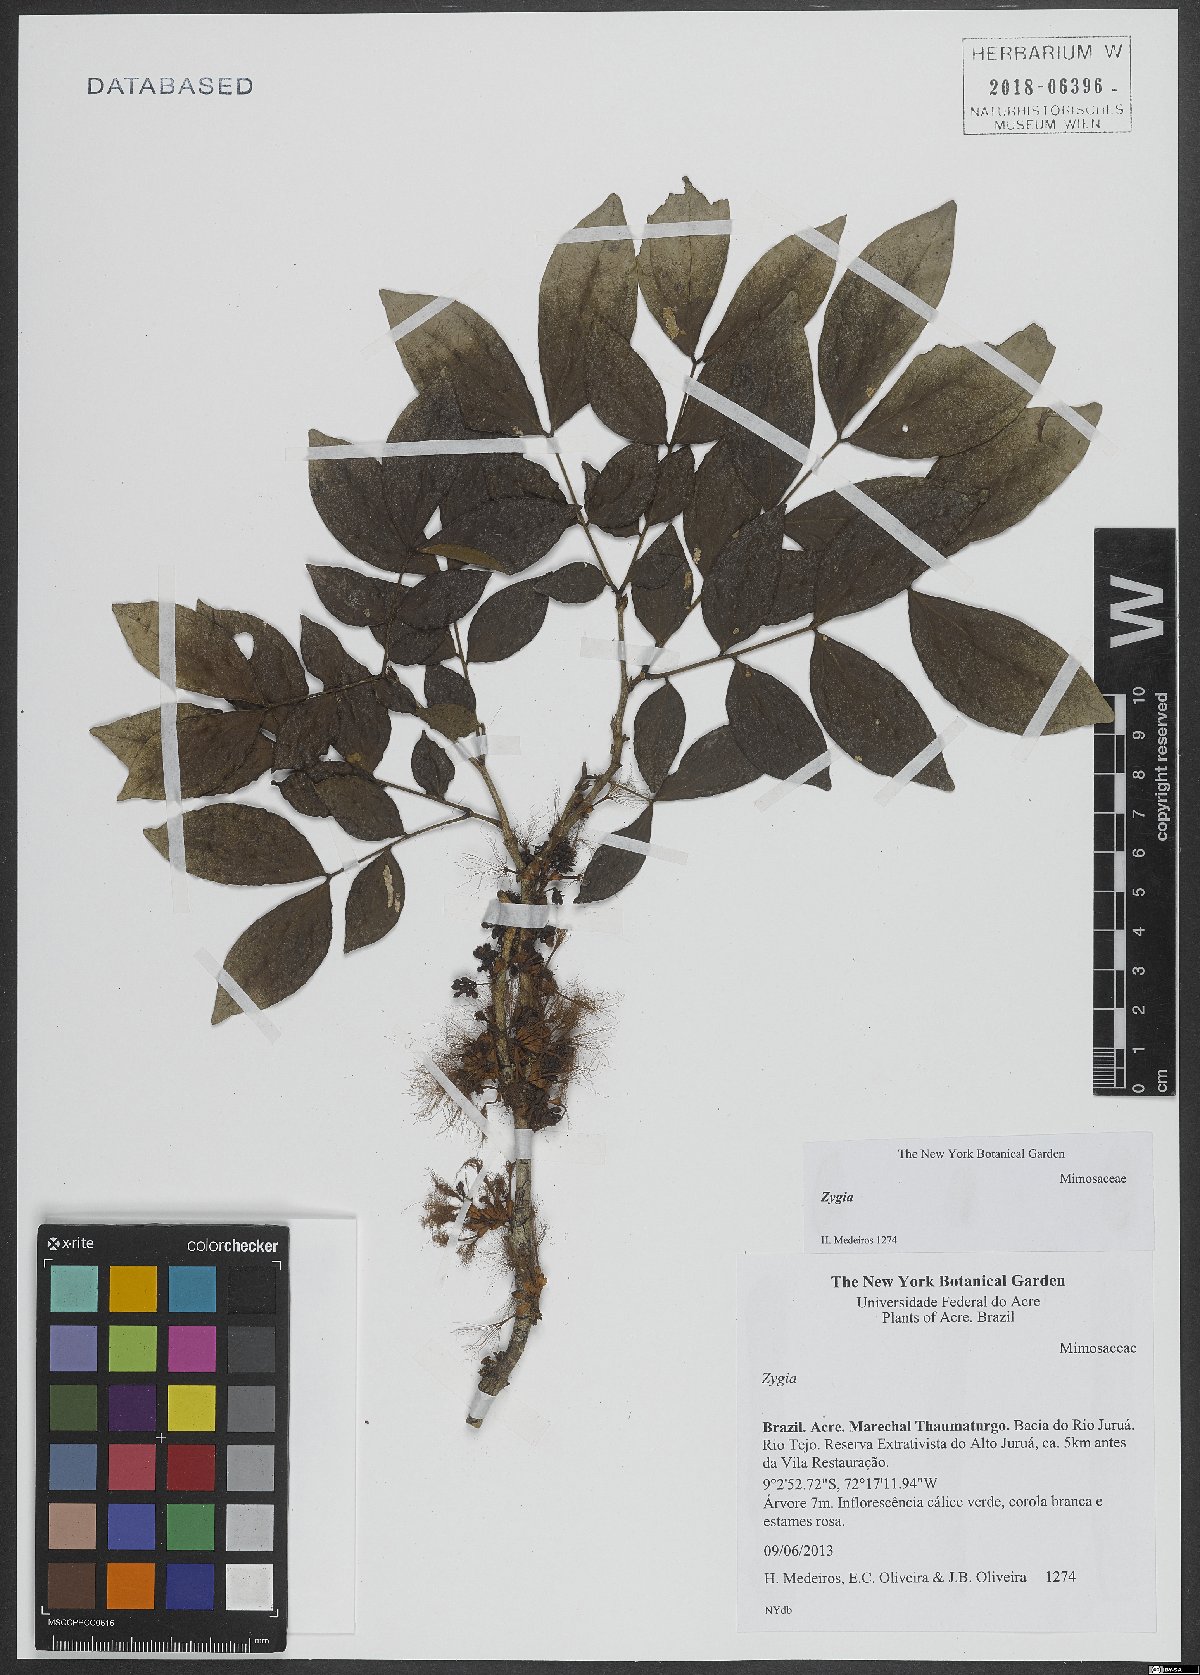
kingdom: Plantae
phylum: Tracheophyta
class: Magnoliopsida
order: Fabales
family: Fabaceae
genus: Zygia
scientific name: Zygia
